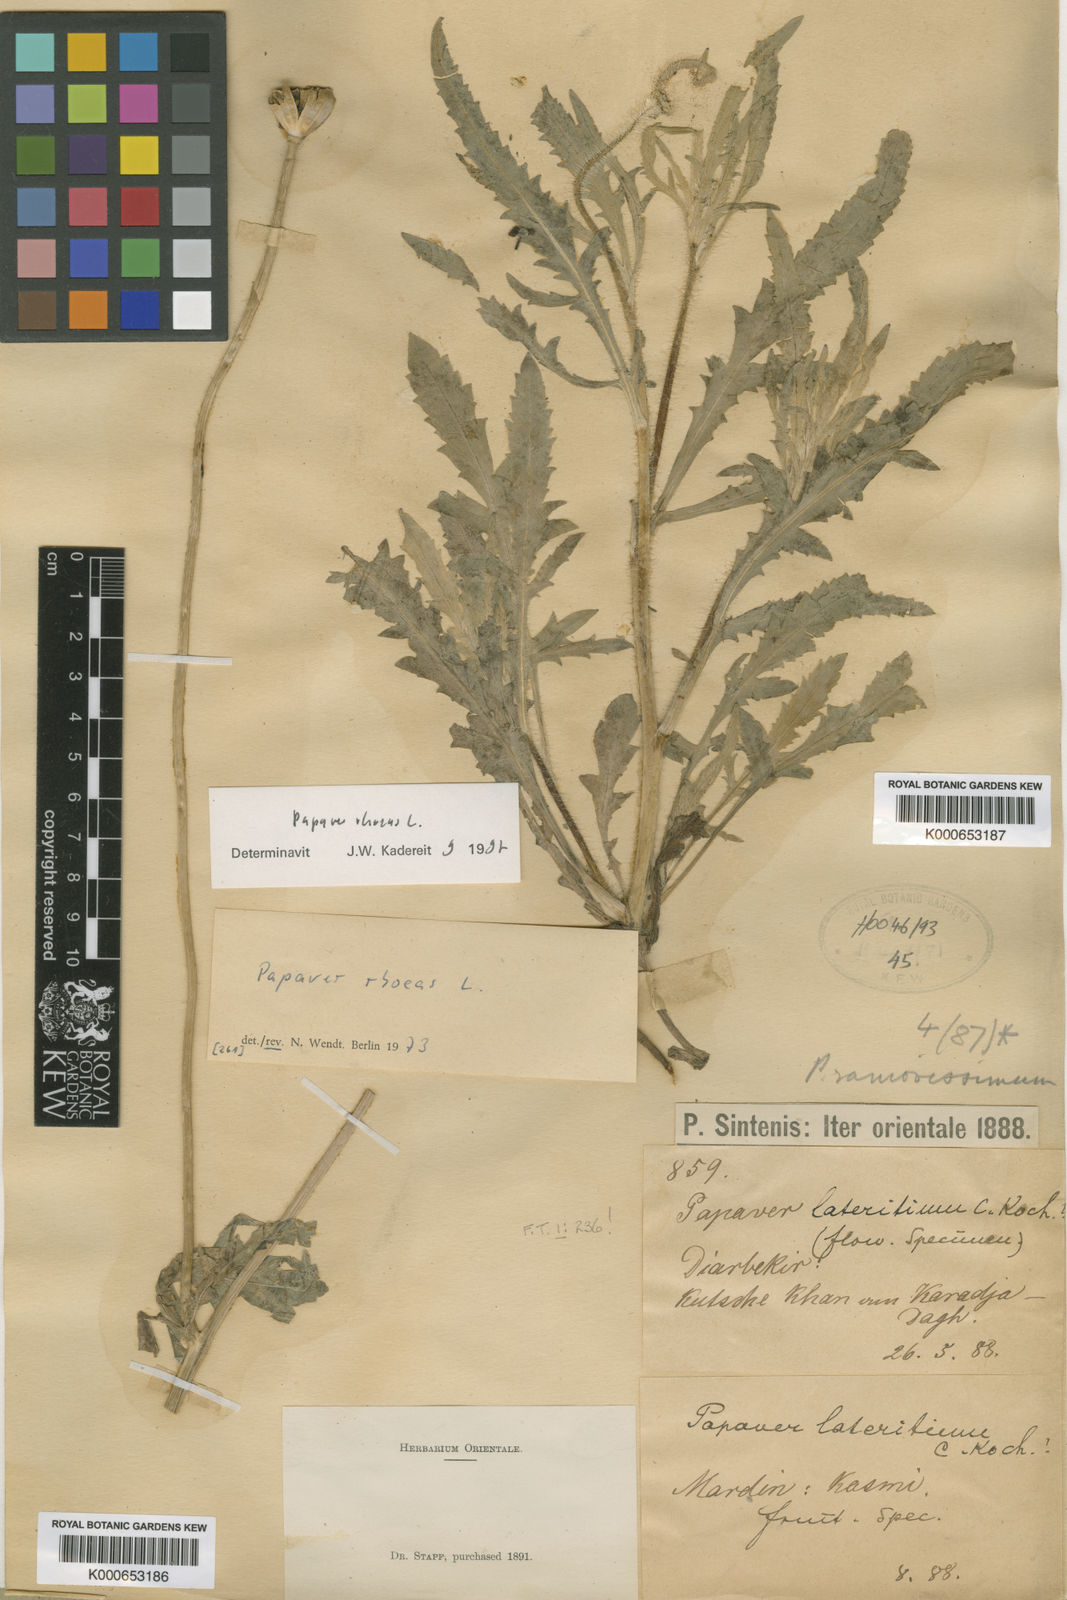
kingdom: Plantae
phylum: Tracheophyta
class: Magnoliopsida
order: Ranunculales
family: Papaveraceae
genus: Papaver
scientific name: Papaver armeniacum
